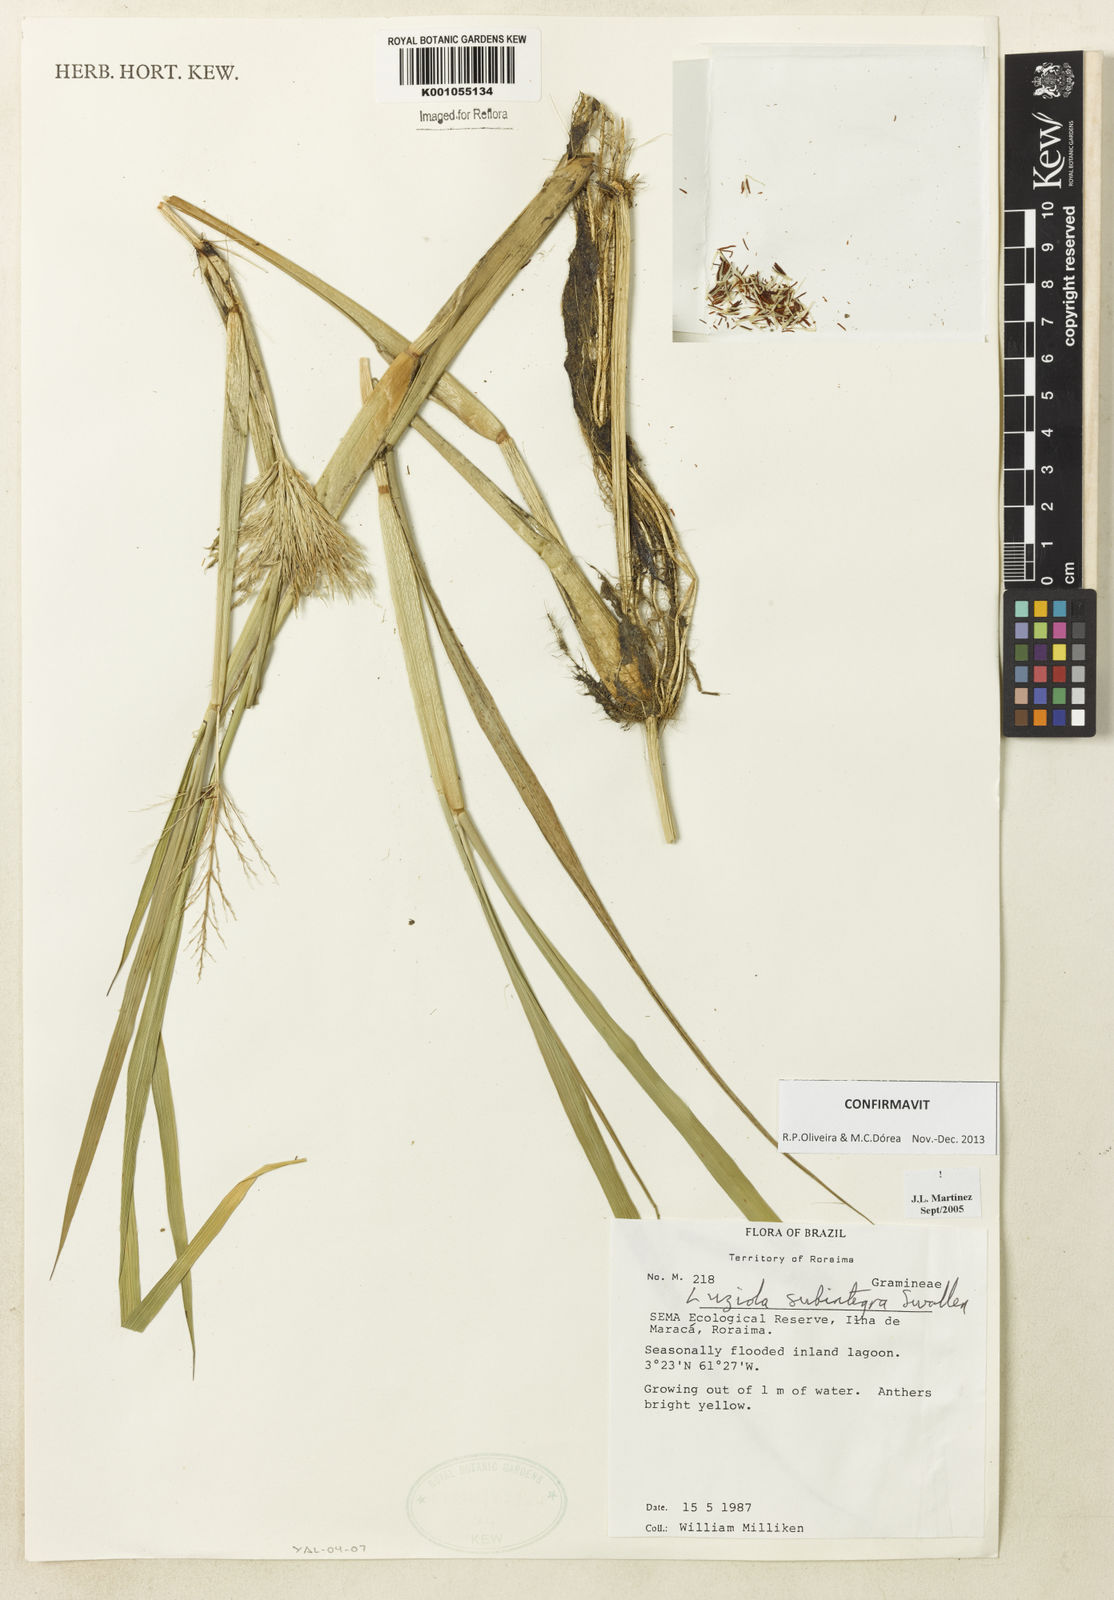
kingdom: Plantae
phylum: Tracheophyta
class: Liliopsida
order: Poales
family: Poaceae
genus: Luziola
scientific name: Luziola subintegra
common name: Large watergrass
